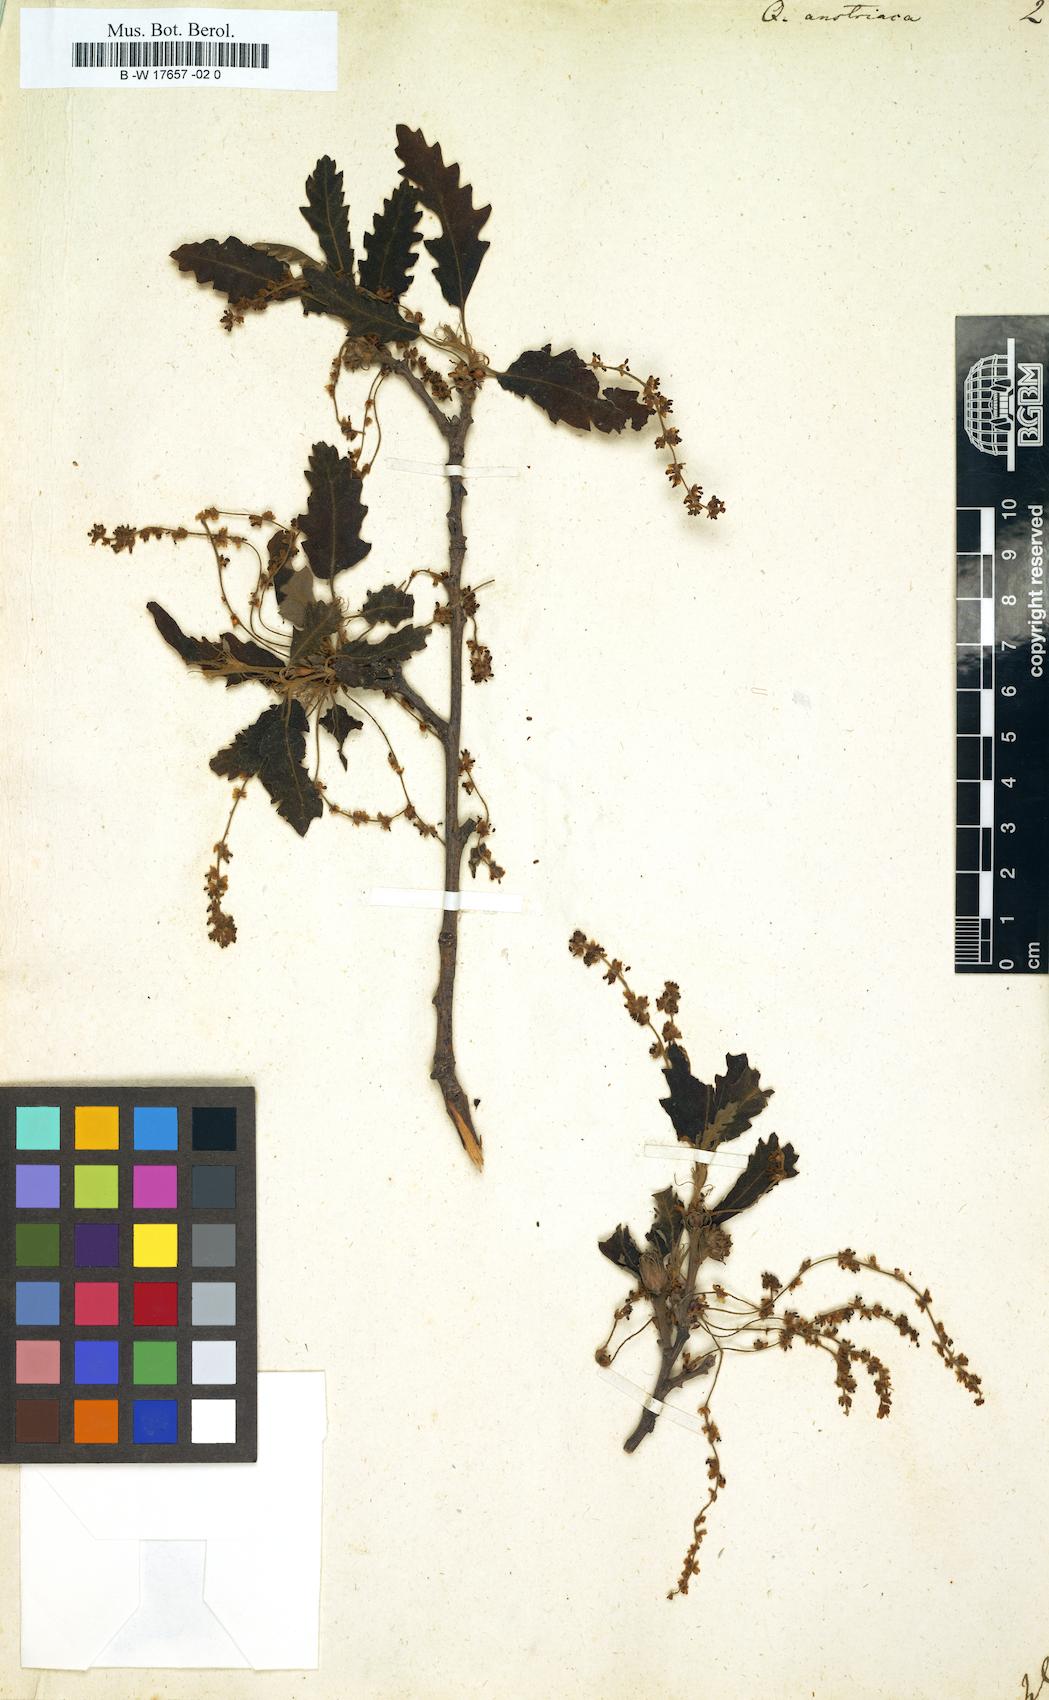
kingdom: Plantae
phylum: Tracheophyta
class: Magnoliopsida
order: Fagales
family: Fagaceae
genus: Quercus
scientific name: Quercus cerris
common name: Turkey oak
